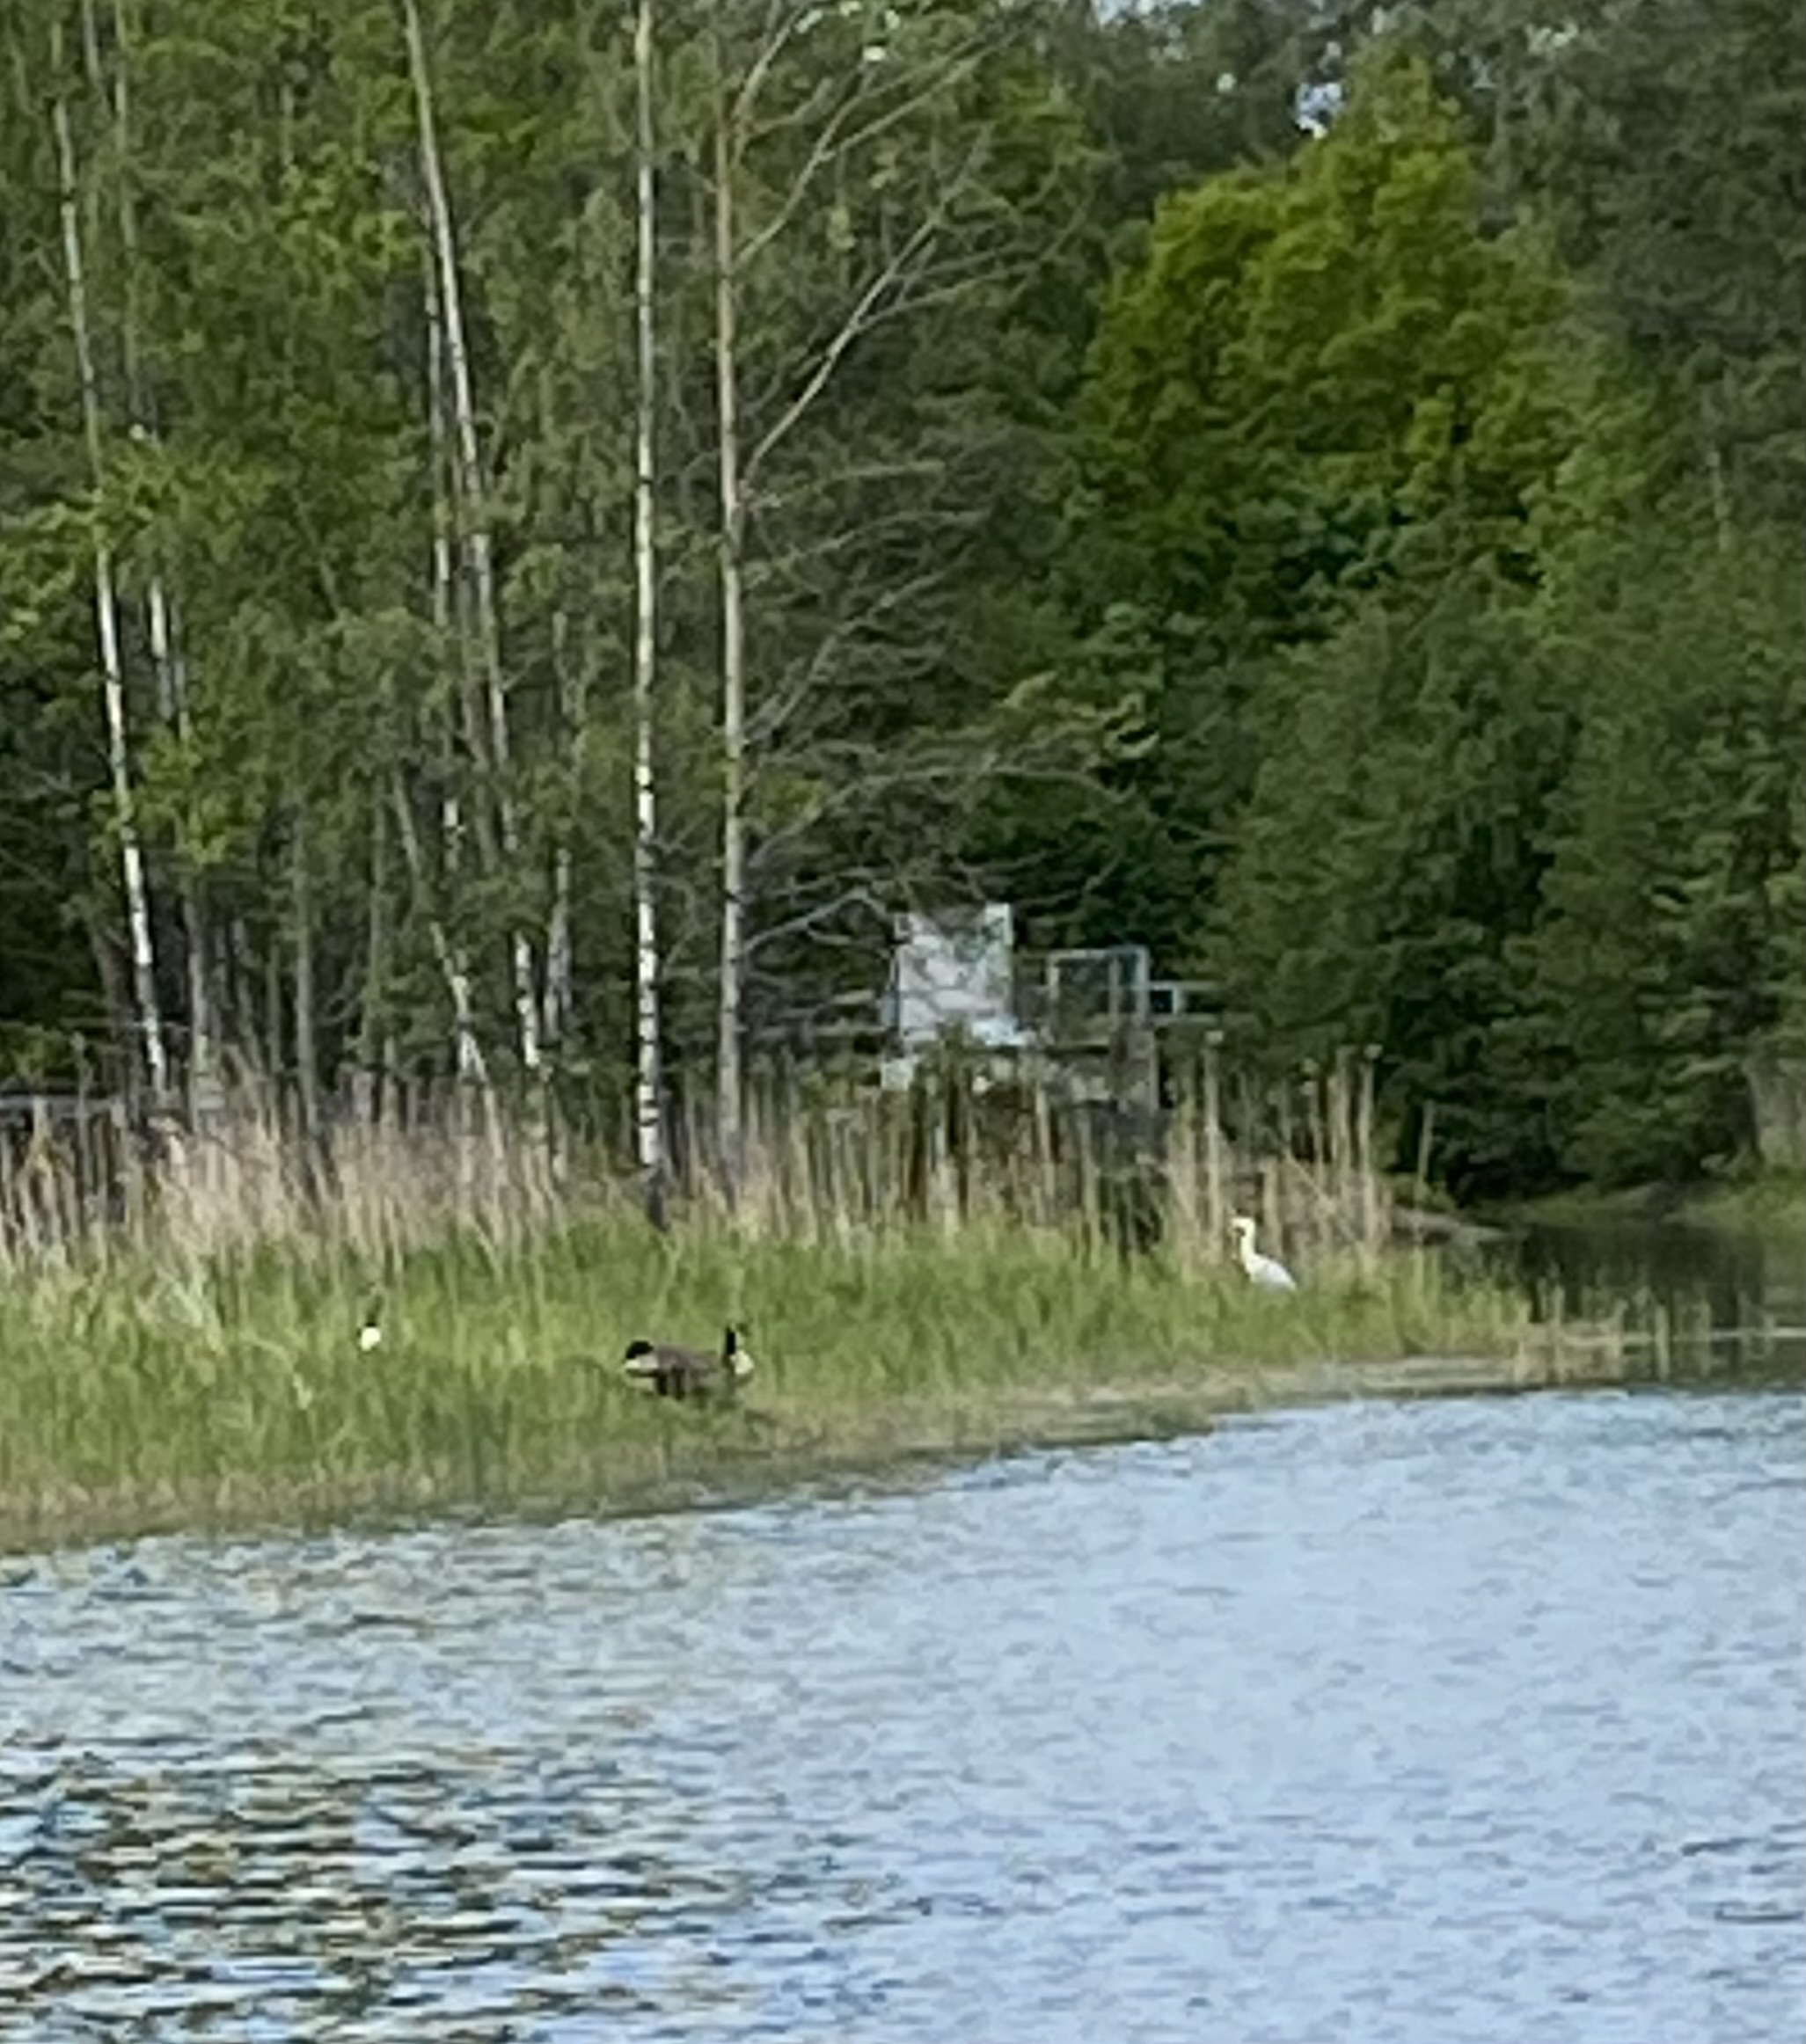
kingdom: Animalia
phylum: Chordata
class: Aves
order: Pelecaniformes
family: Ardeidae
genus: Ardea
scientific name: Ardea cinerea
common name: Grey heron
